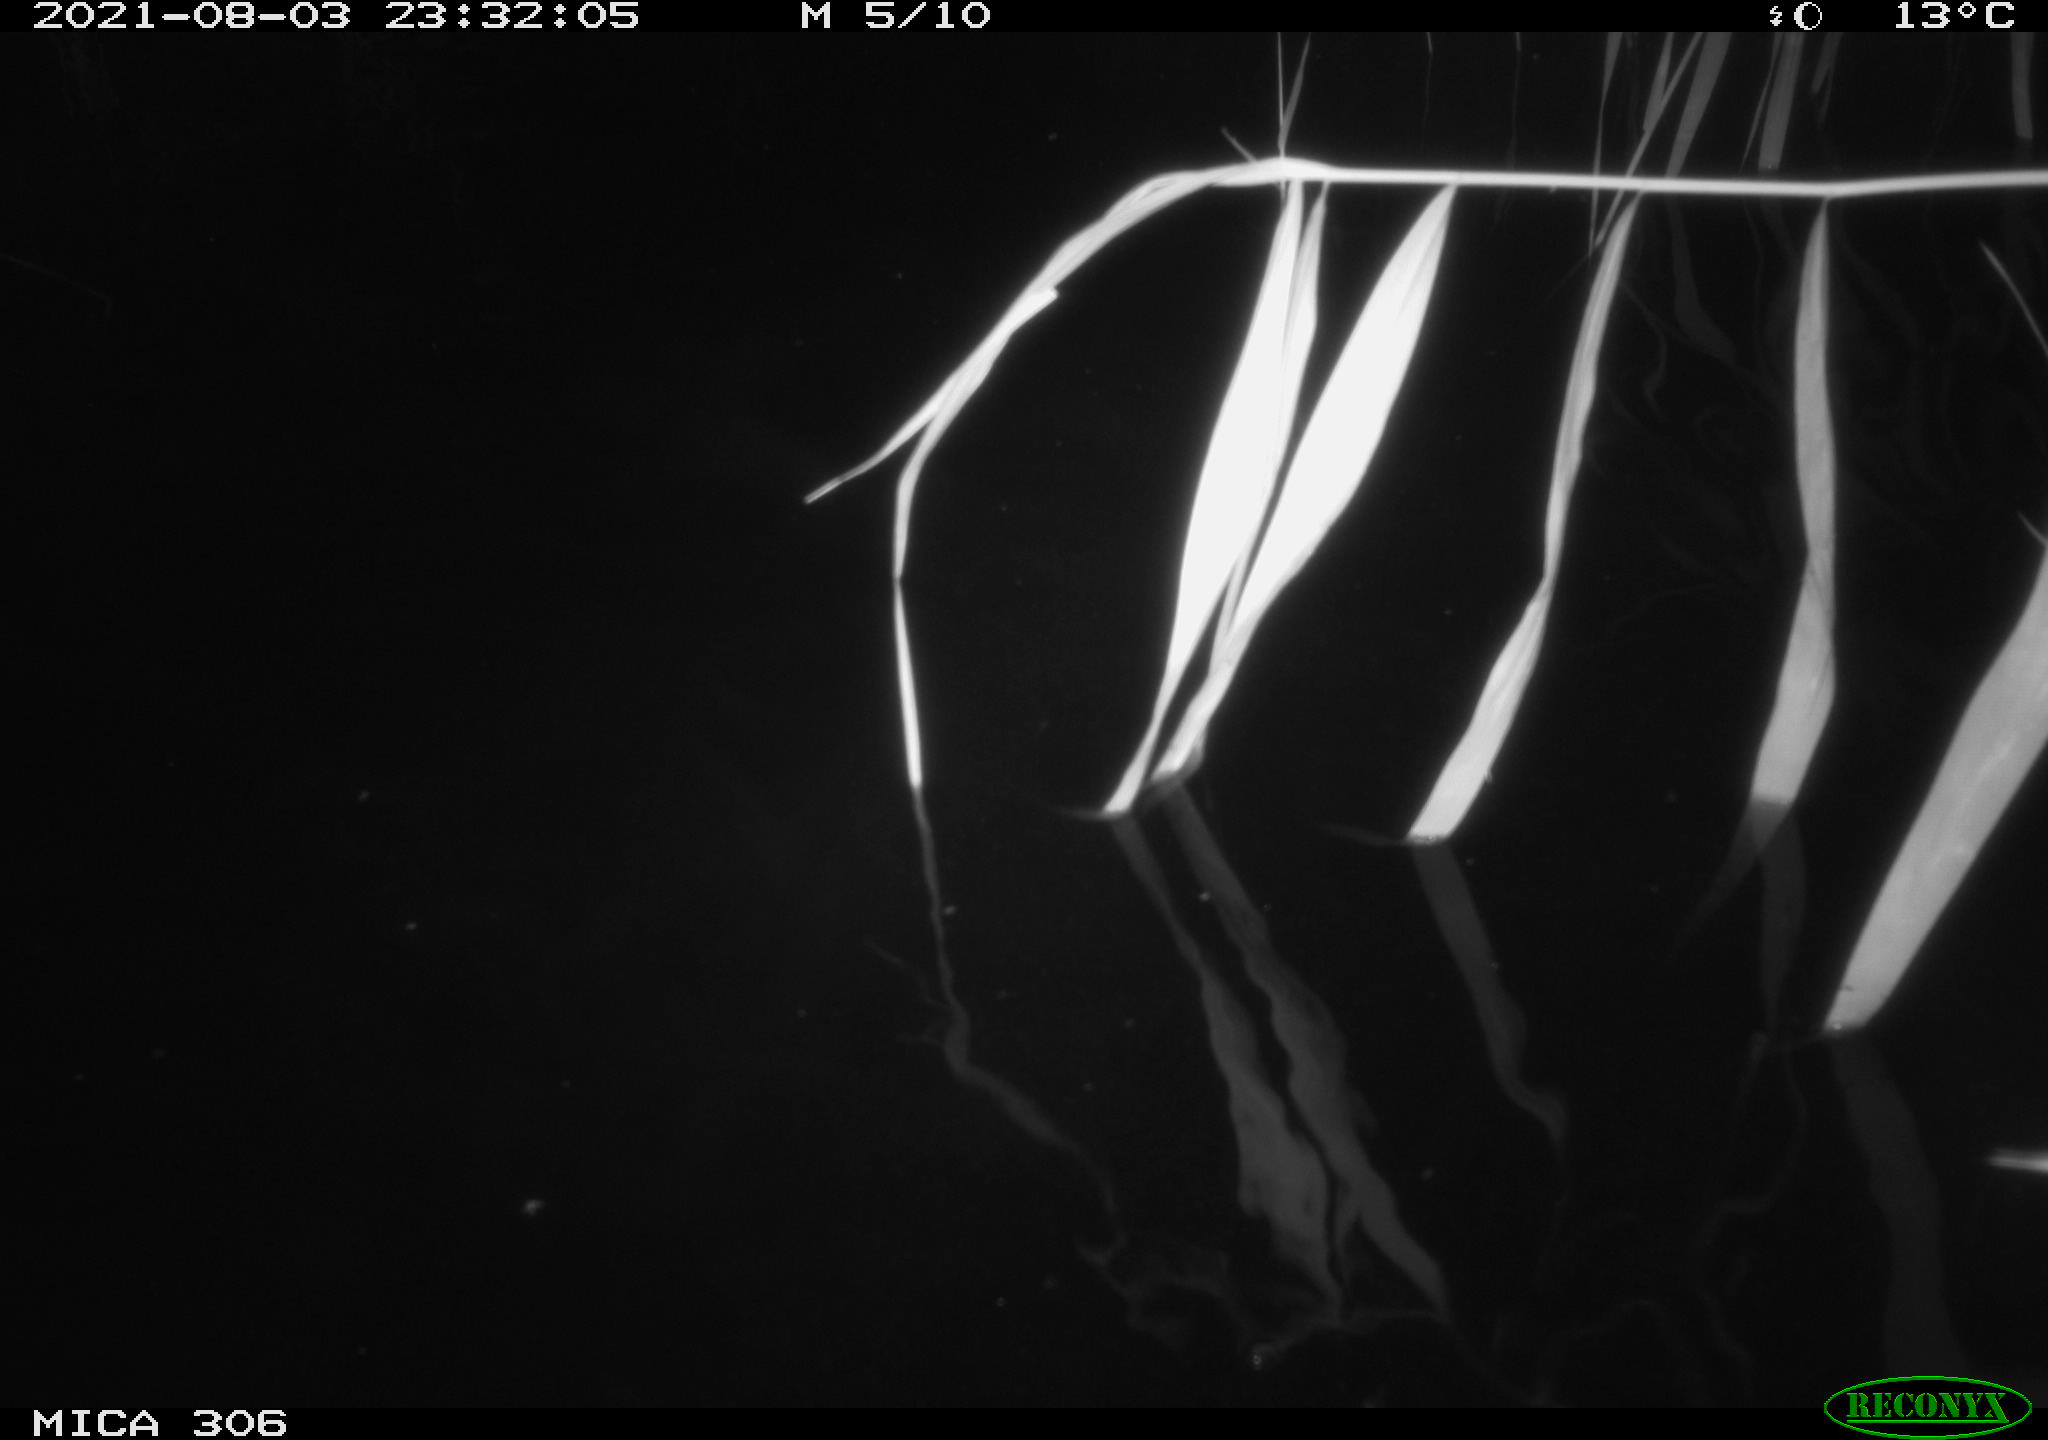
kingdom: Animalia
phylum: Chordata
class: Mammalia
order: Rodentia
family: Cricetidae
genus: Ondatra
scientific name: Ondatra zibethicus
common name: Muskrat
